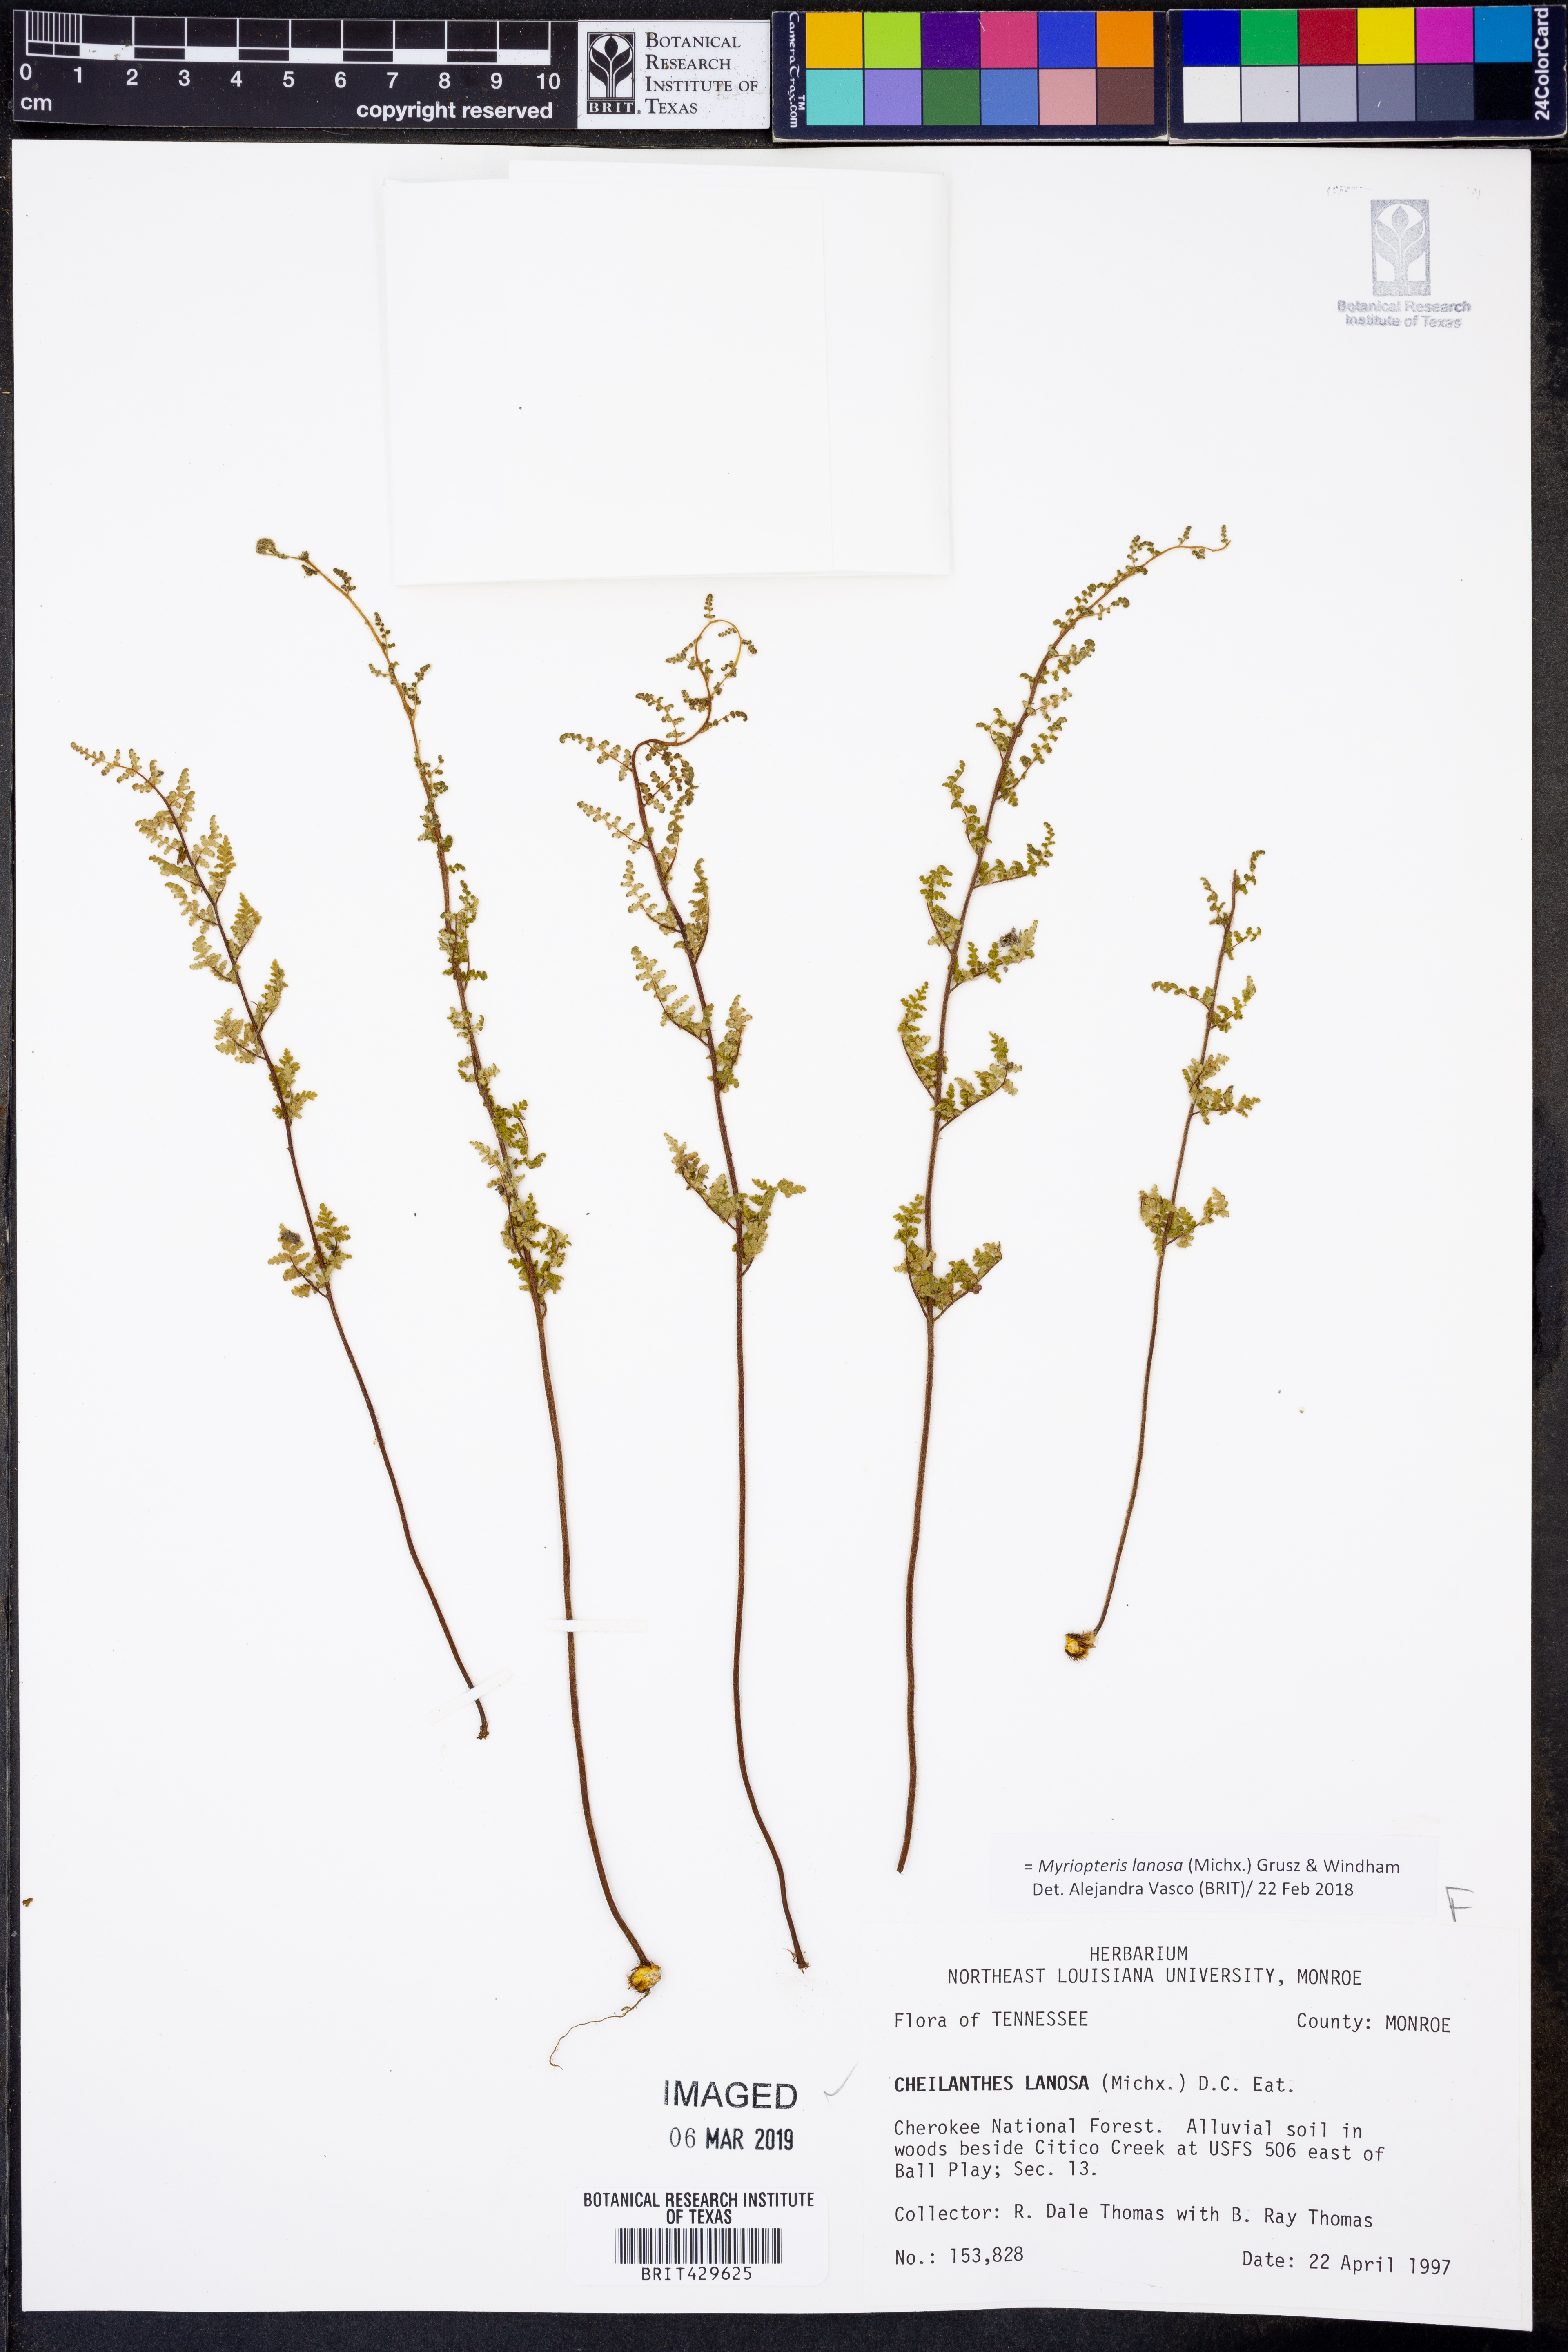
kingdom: Plantae
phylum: Tracheophyta
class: Polypodiopsida
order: Polypodiales
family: Pteridaceae
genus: Myriopteris
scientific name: Myriopteris lanosa
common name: Hairy lip fern
